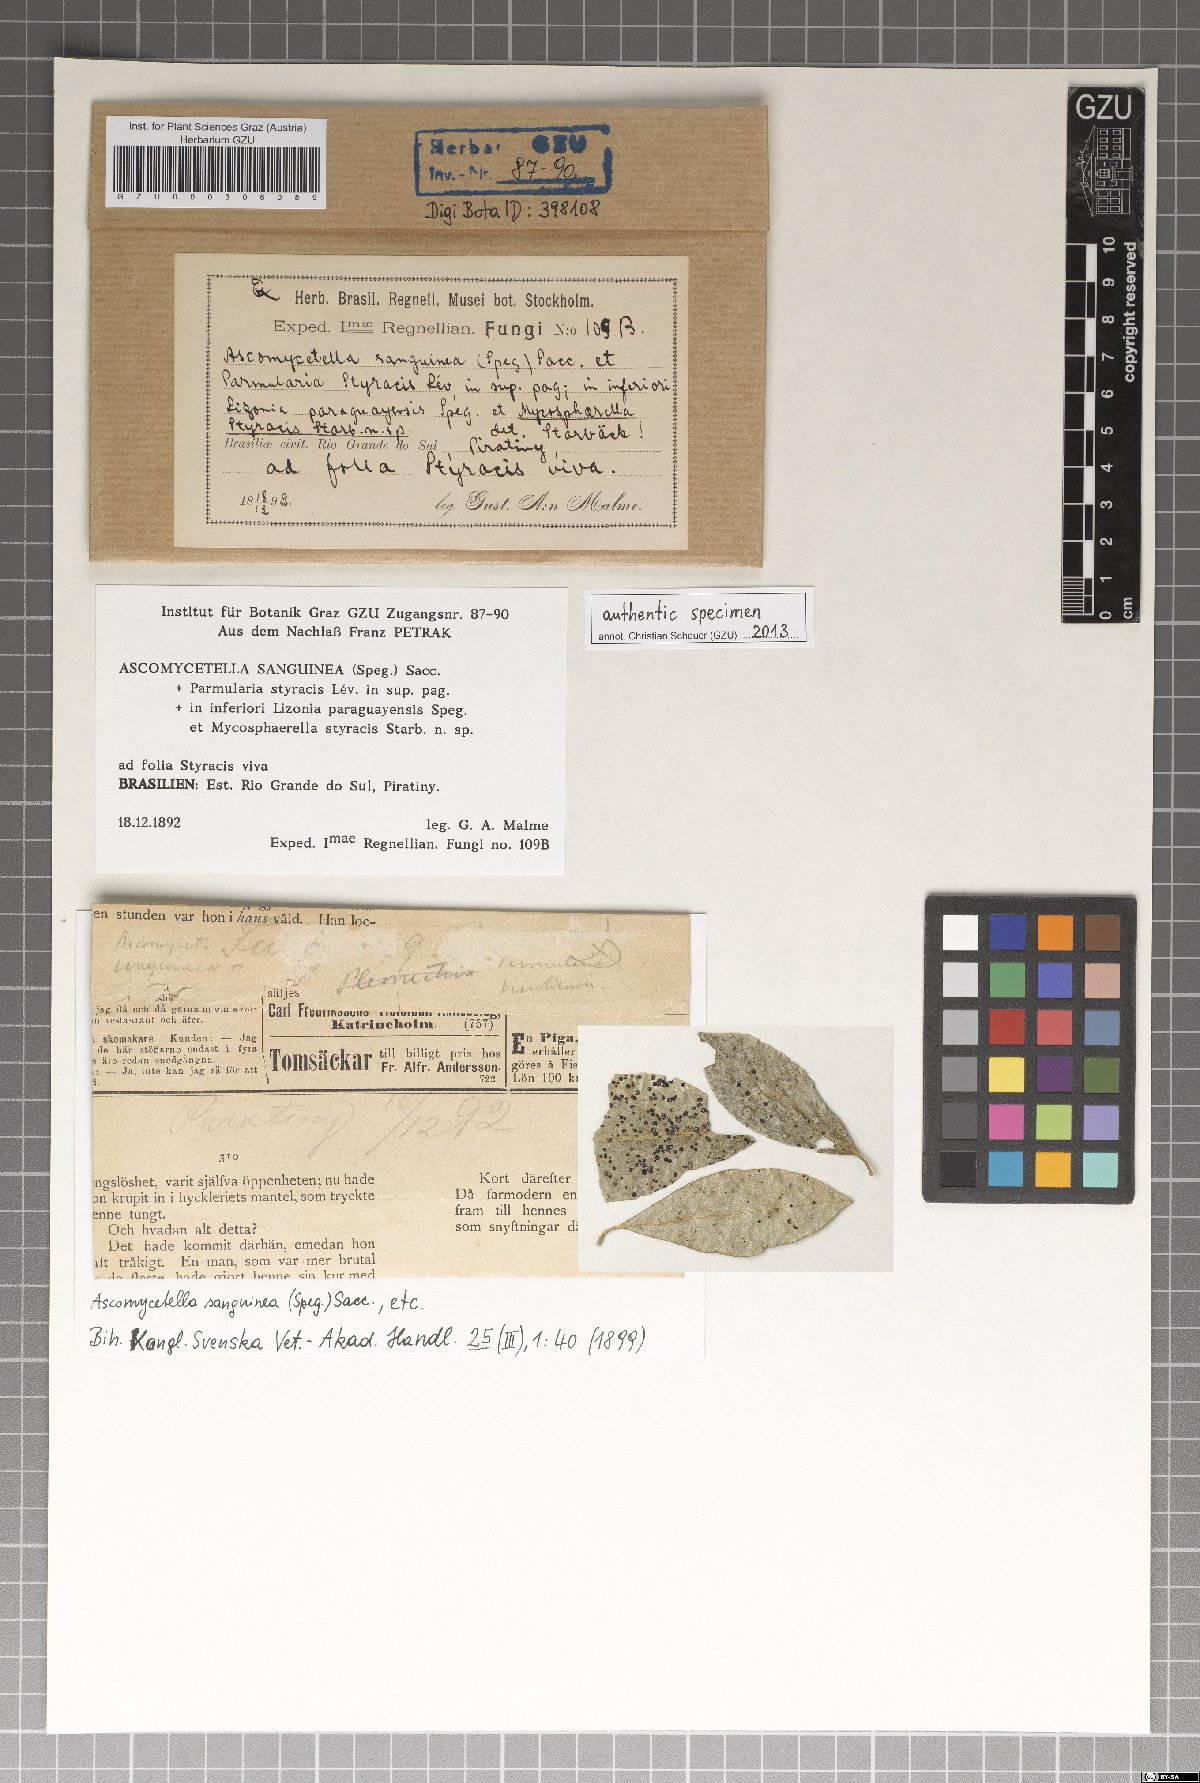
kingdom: Fungi
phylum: Ascomycota
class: Dothideomycetes
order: Mycosphaerellales
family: Mycosphaerellaceae
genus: Mycosphaerella
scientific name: Mycosphaerella
